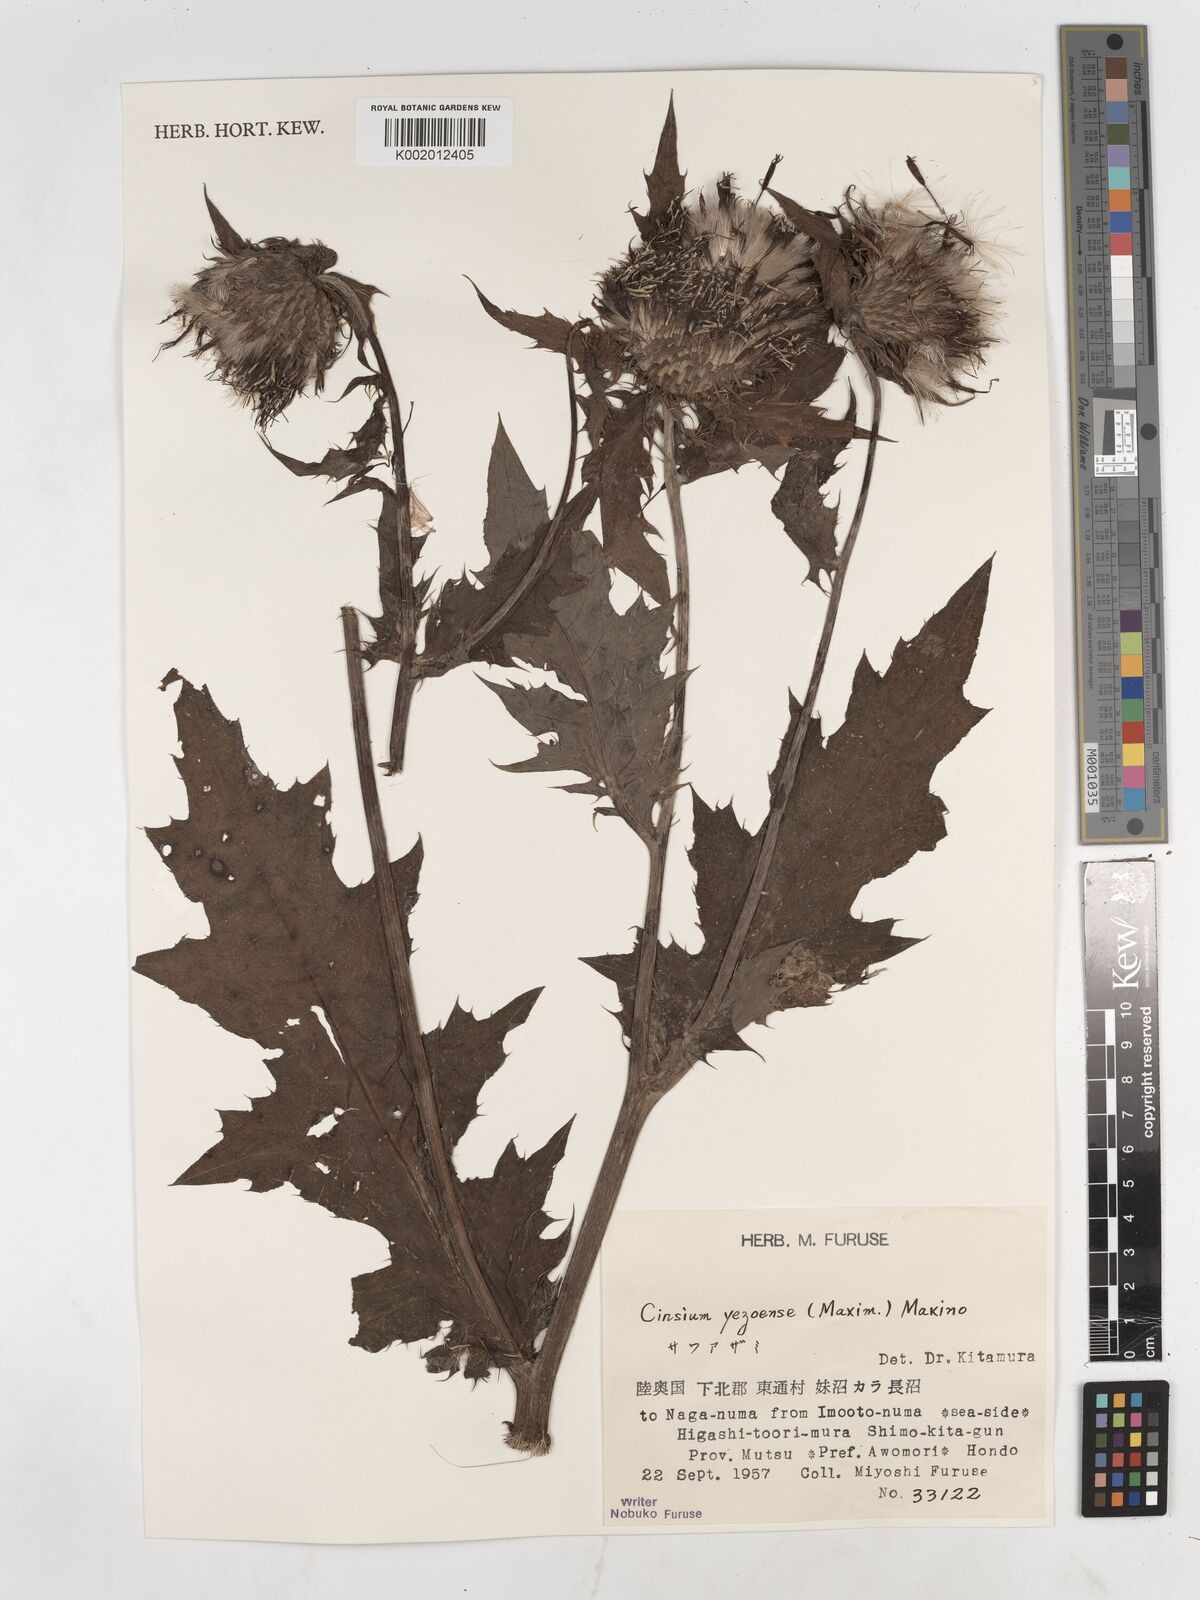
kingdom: Plantae
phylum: Tracheophyta
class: Magnoliopsida
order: Asterales
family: Asteraceae
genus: Cirsium
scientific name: Cirsium yezoense
